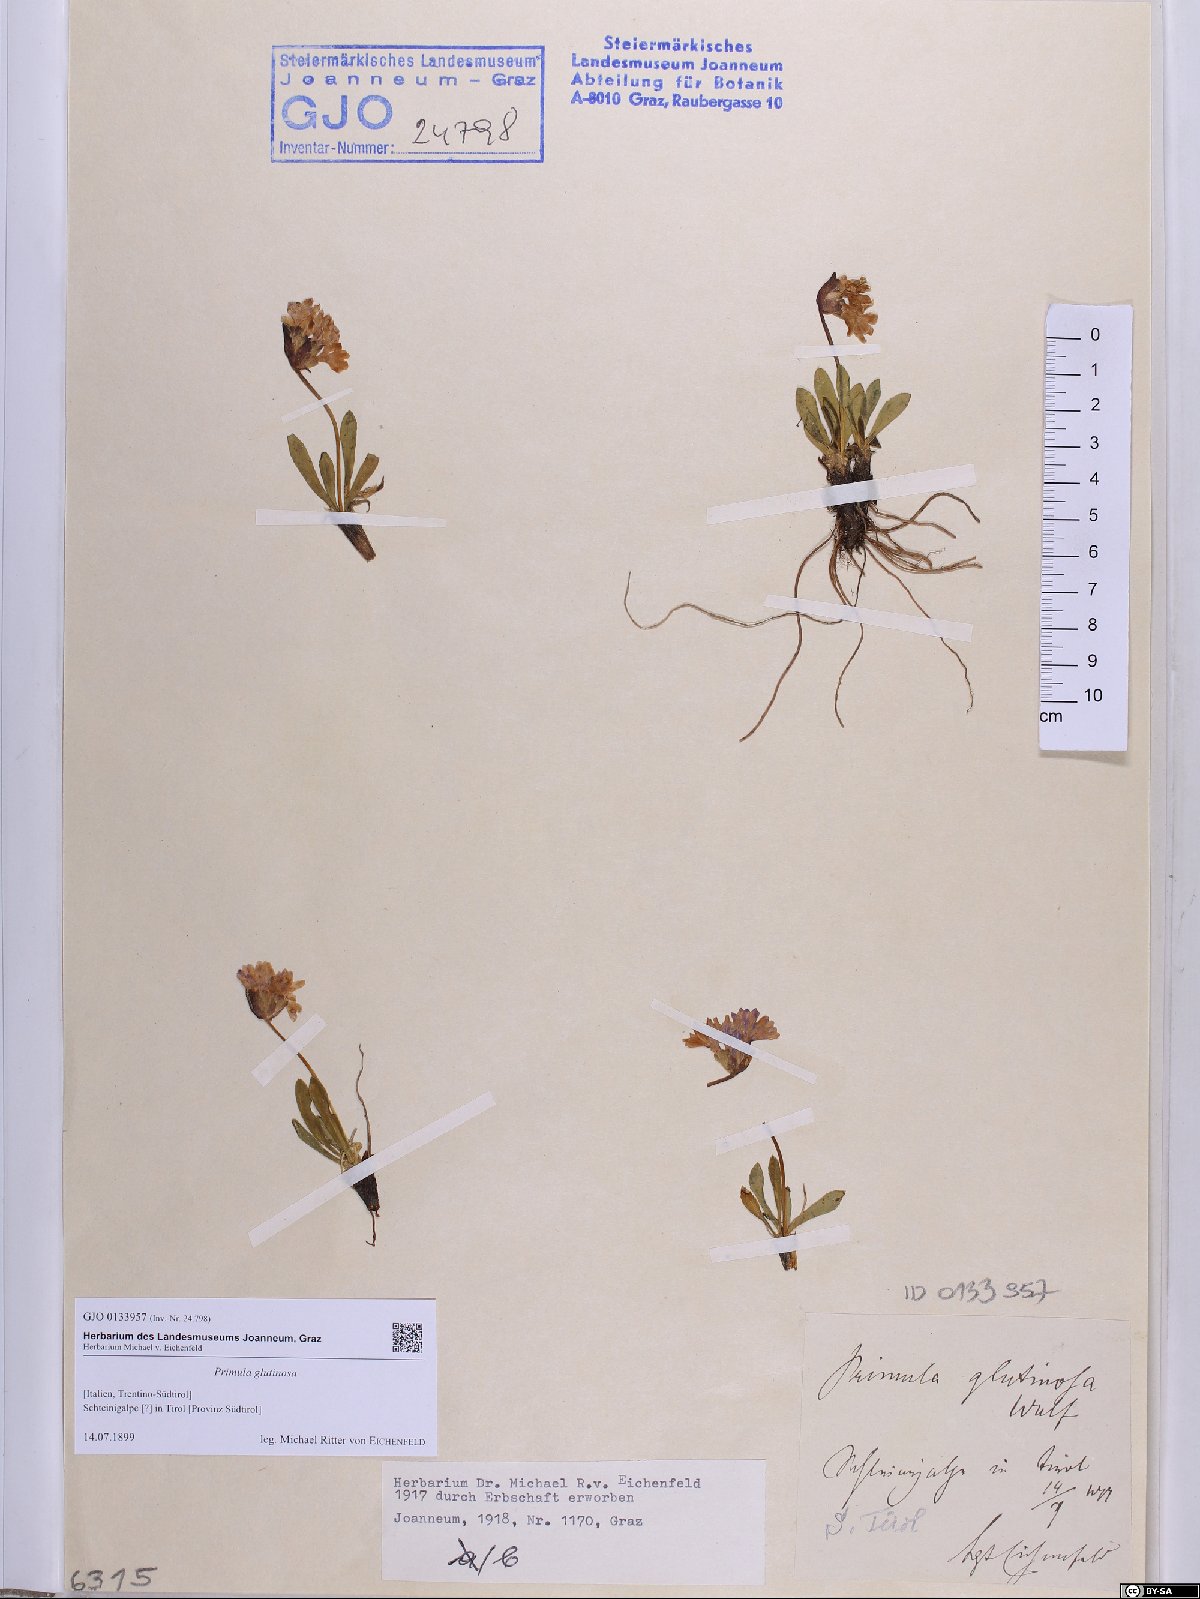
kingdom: Plantae
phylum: Tracheophyta
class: Magnoliopsida
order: Ericales
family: Primulaceae
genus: Primula
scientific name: Primula glutinosa
